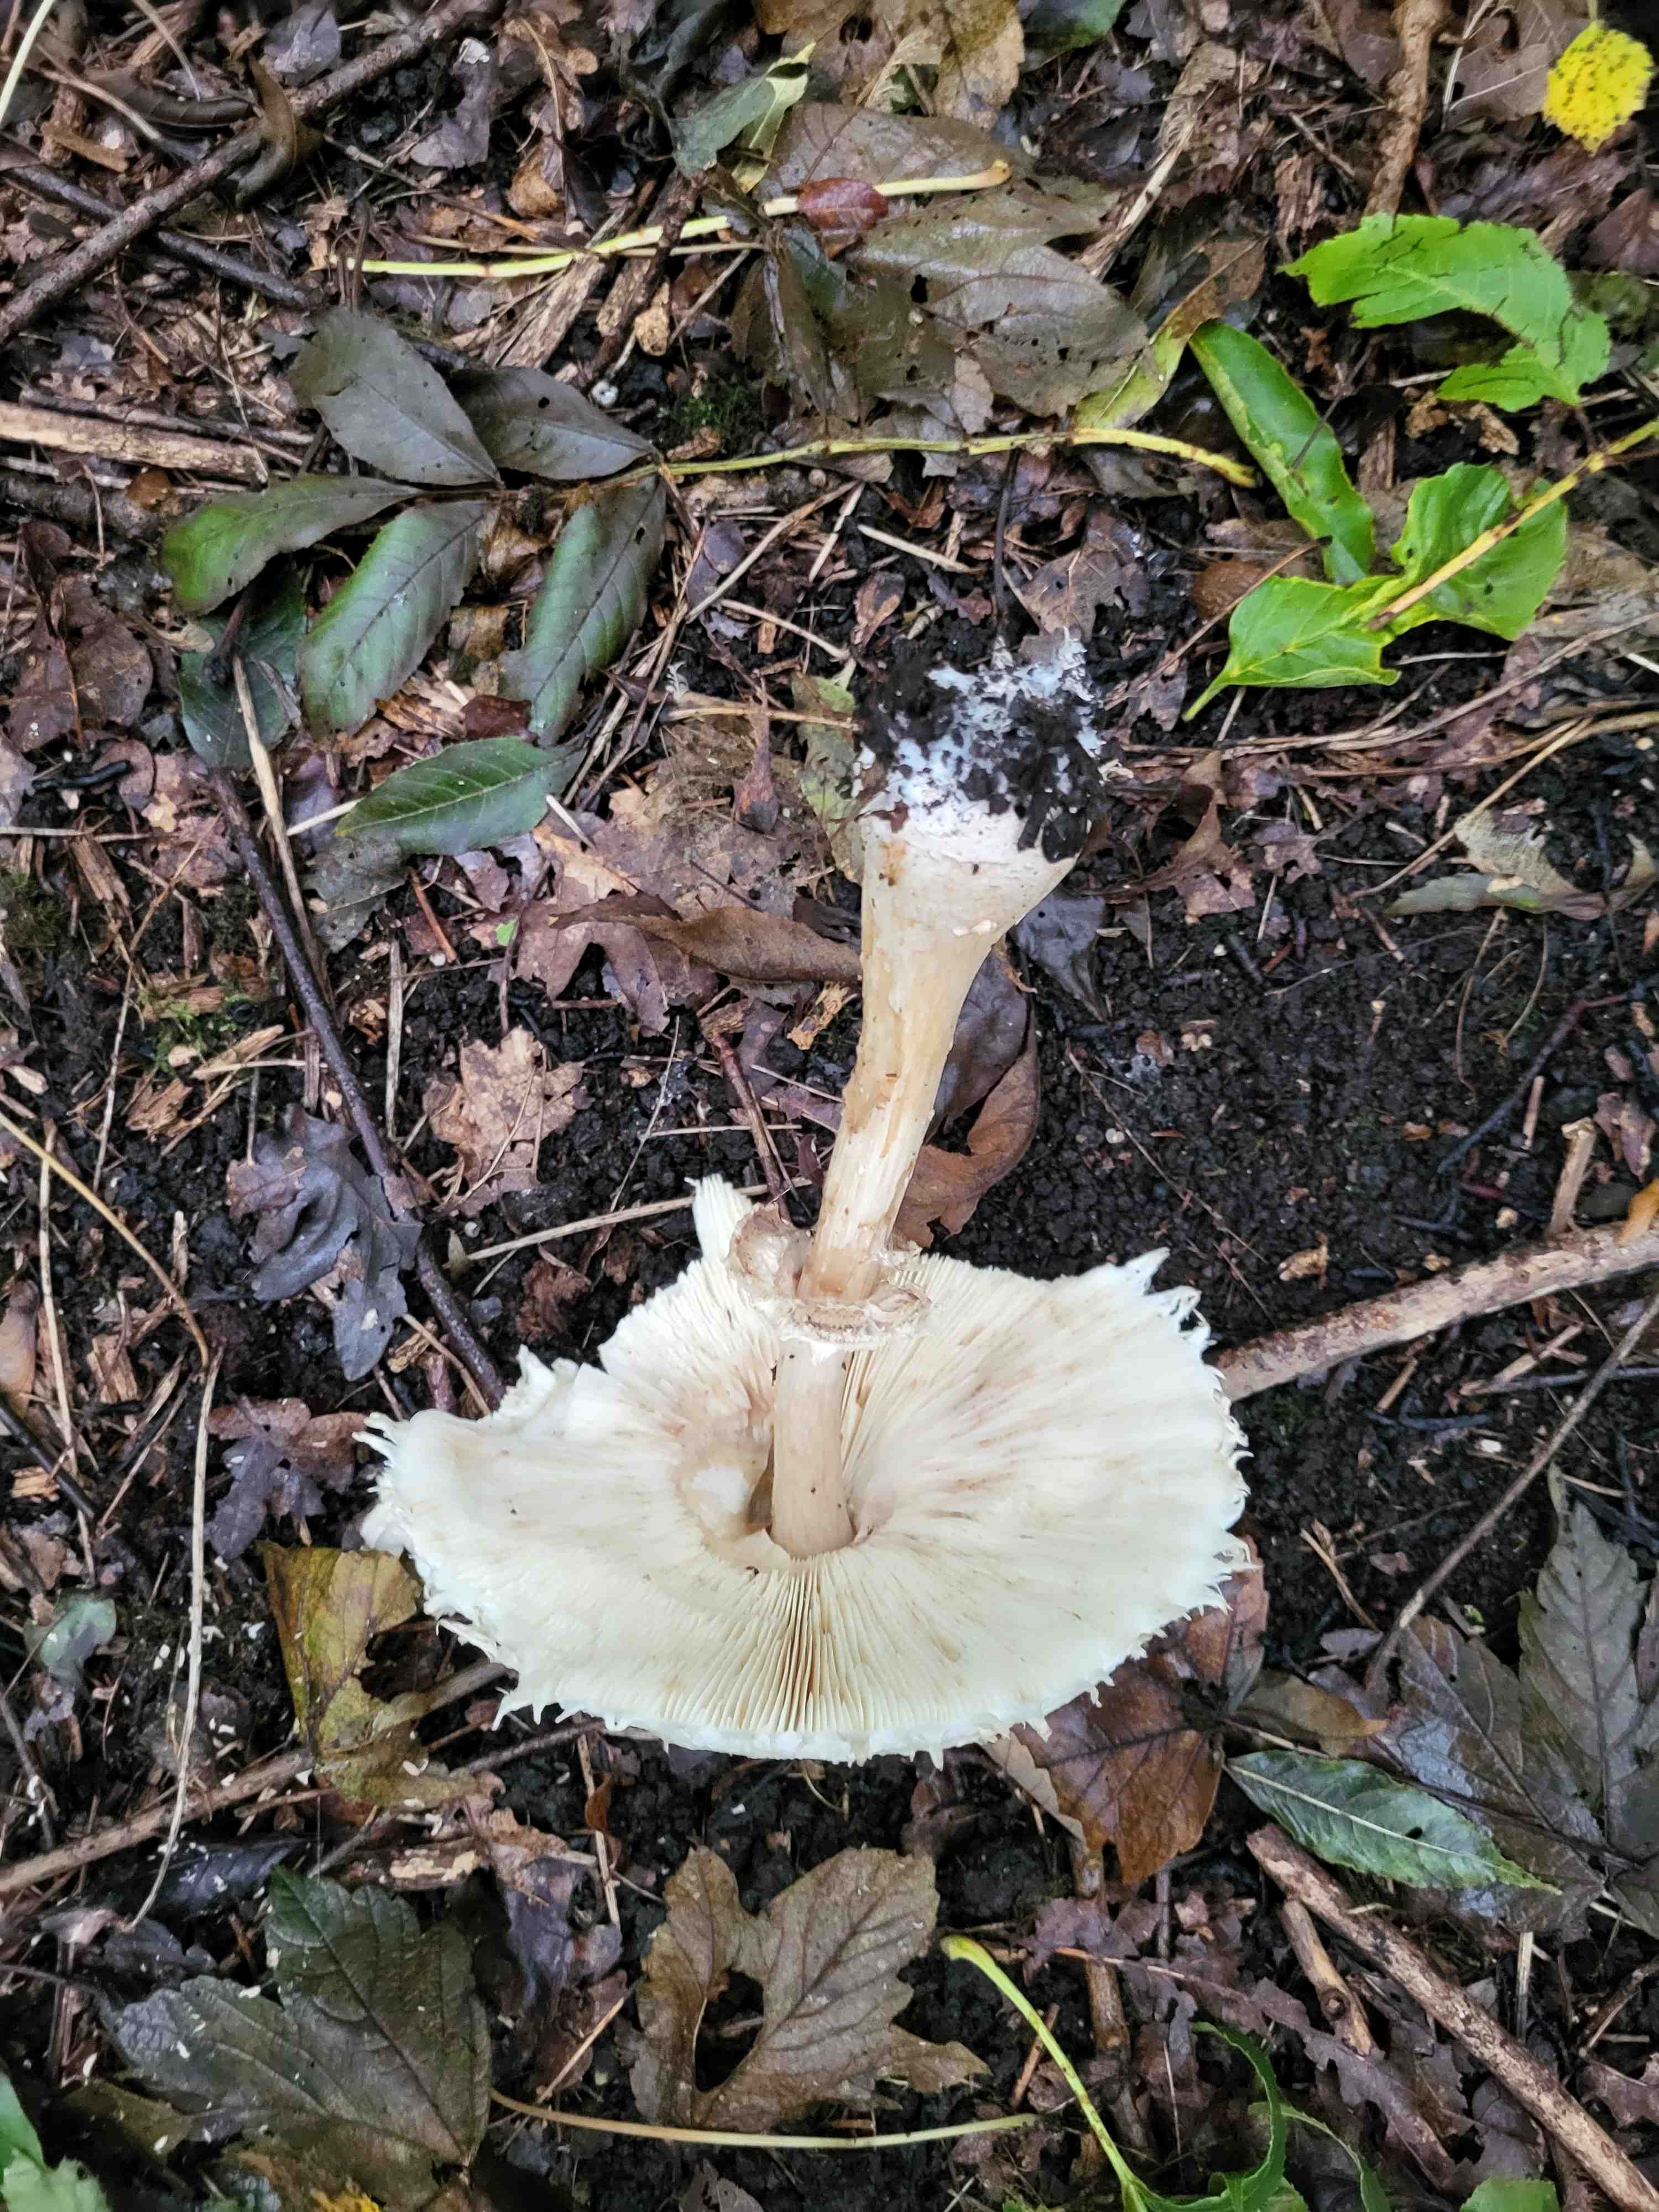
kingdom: Fungi
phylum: Basidiomycota
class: Agaricomycetes
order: Agaricales
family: Agaricaceae
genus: Chlorophyllum
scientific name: Chlorophyllum
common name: rabarberhat
